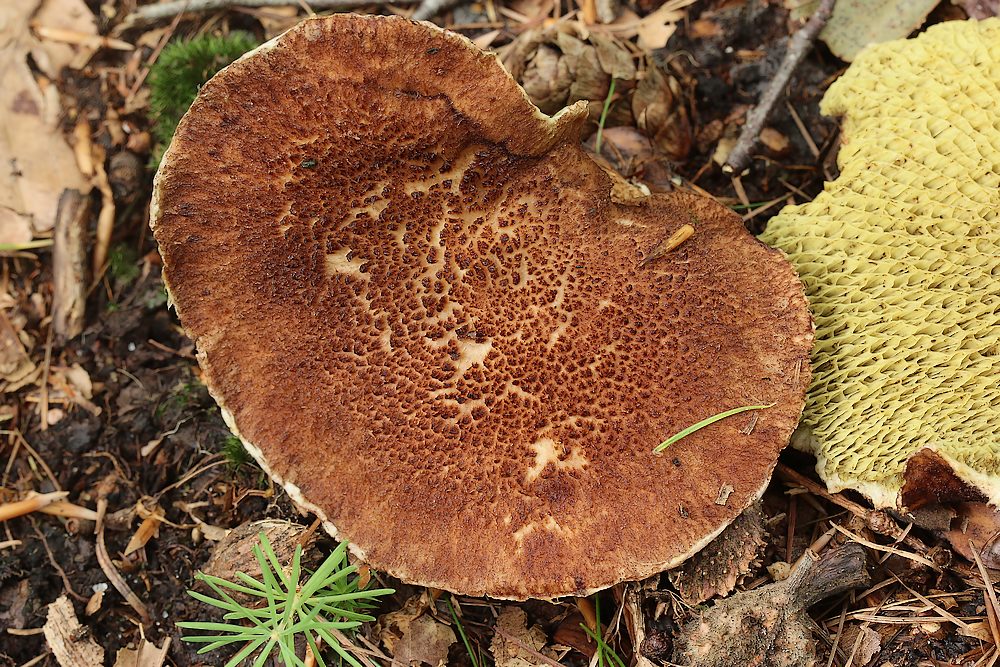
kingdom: Fungi
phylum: Basidiomycota
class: Agaricomycetes
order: Boletales
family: Suillaceae
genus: Suillus
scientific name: Suillus cavipes
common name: hulstokket slimrørhat
